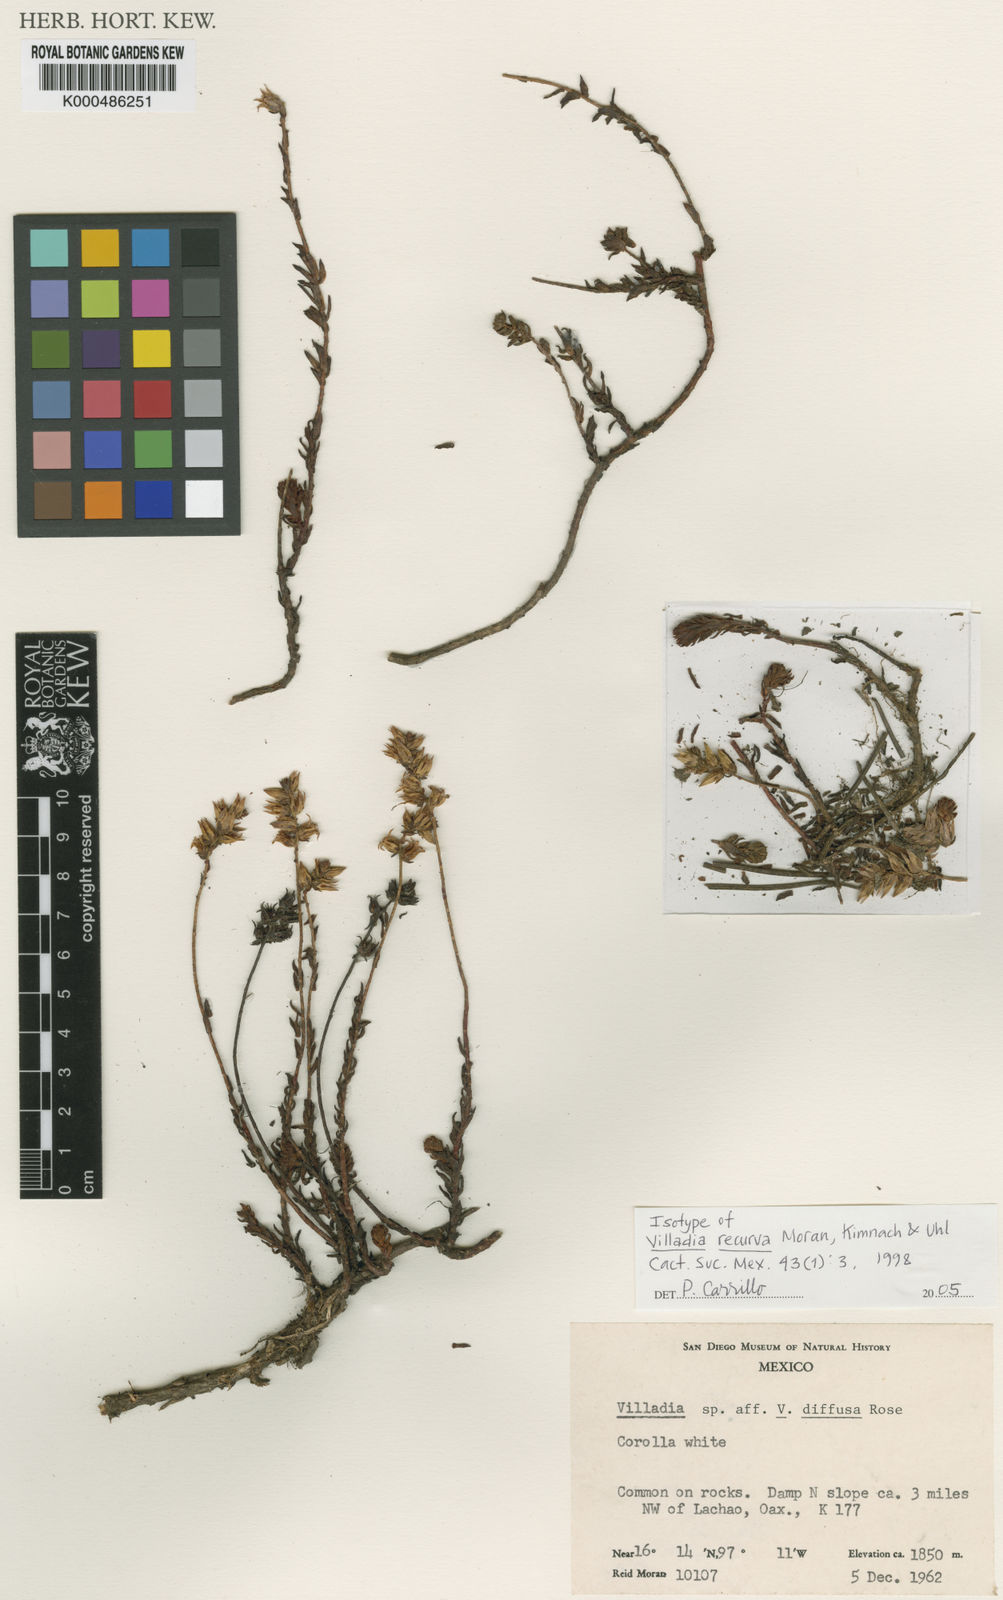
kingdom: Plantae
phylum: Tracheophyta
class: Magnoliopsida
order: Saxifragales
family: Crassulaceae
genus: Villadia
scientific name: Villadia recurva
